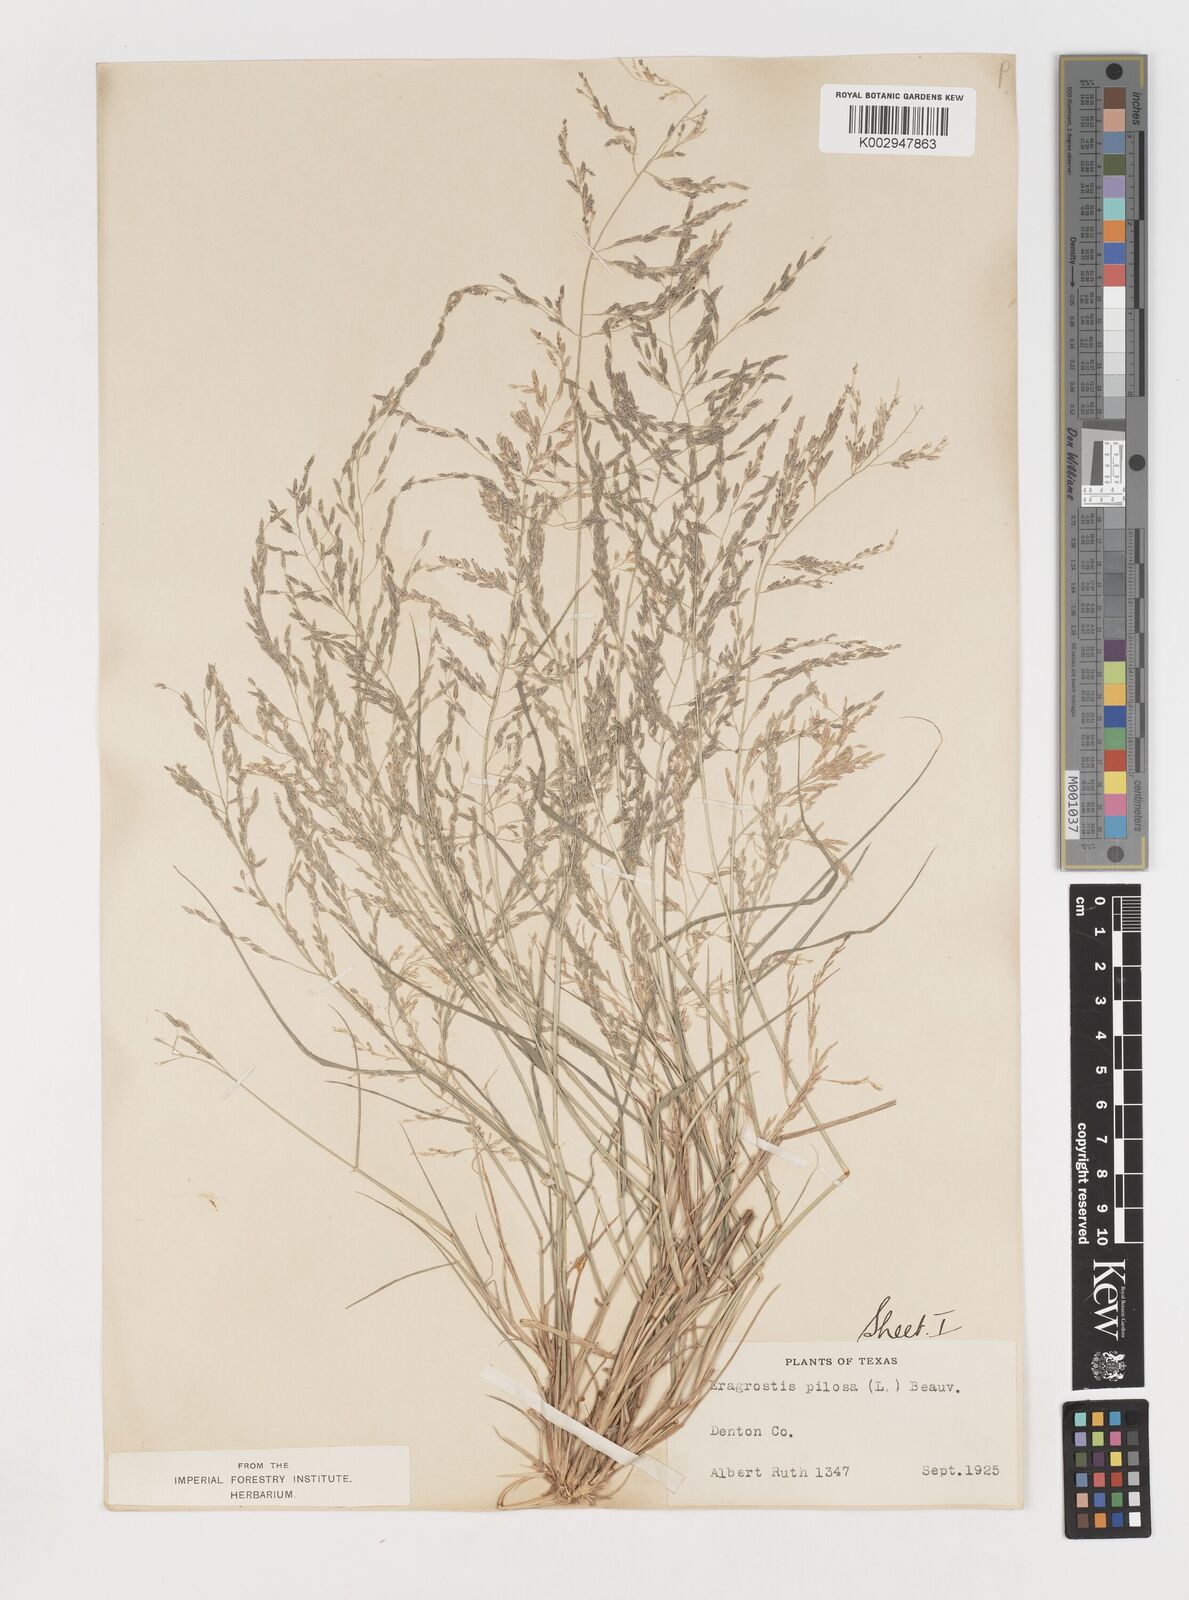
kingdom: Plantae
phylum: Tracheophyta
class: Liliopsida
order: Poales
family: Poaceae
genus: Eragrostis
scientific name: Eragrostis pectinacea
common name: Tufted lovegrass
